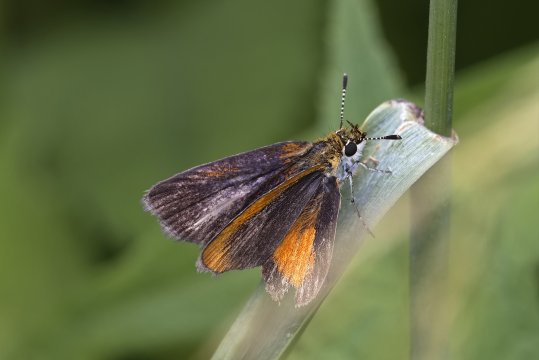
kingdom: Animalia
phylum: Arthropoda
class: Insecta
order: Lepidoptera
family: Hesperiidae
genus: Ancyloxypha
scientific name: Ancyloxypha numitor
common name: Least Skipper
